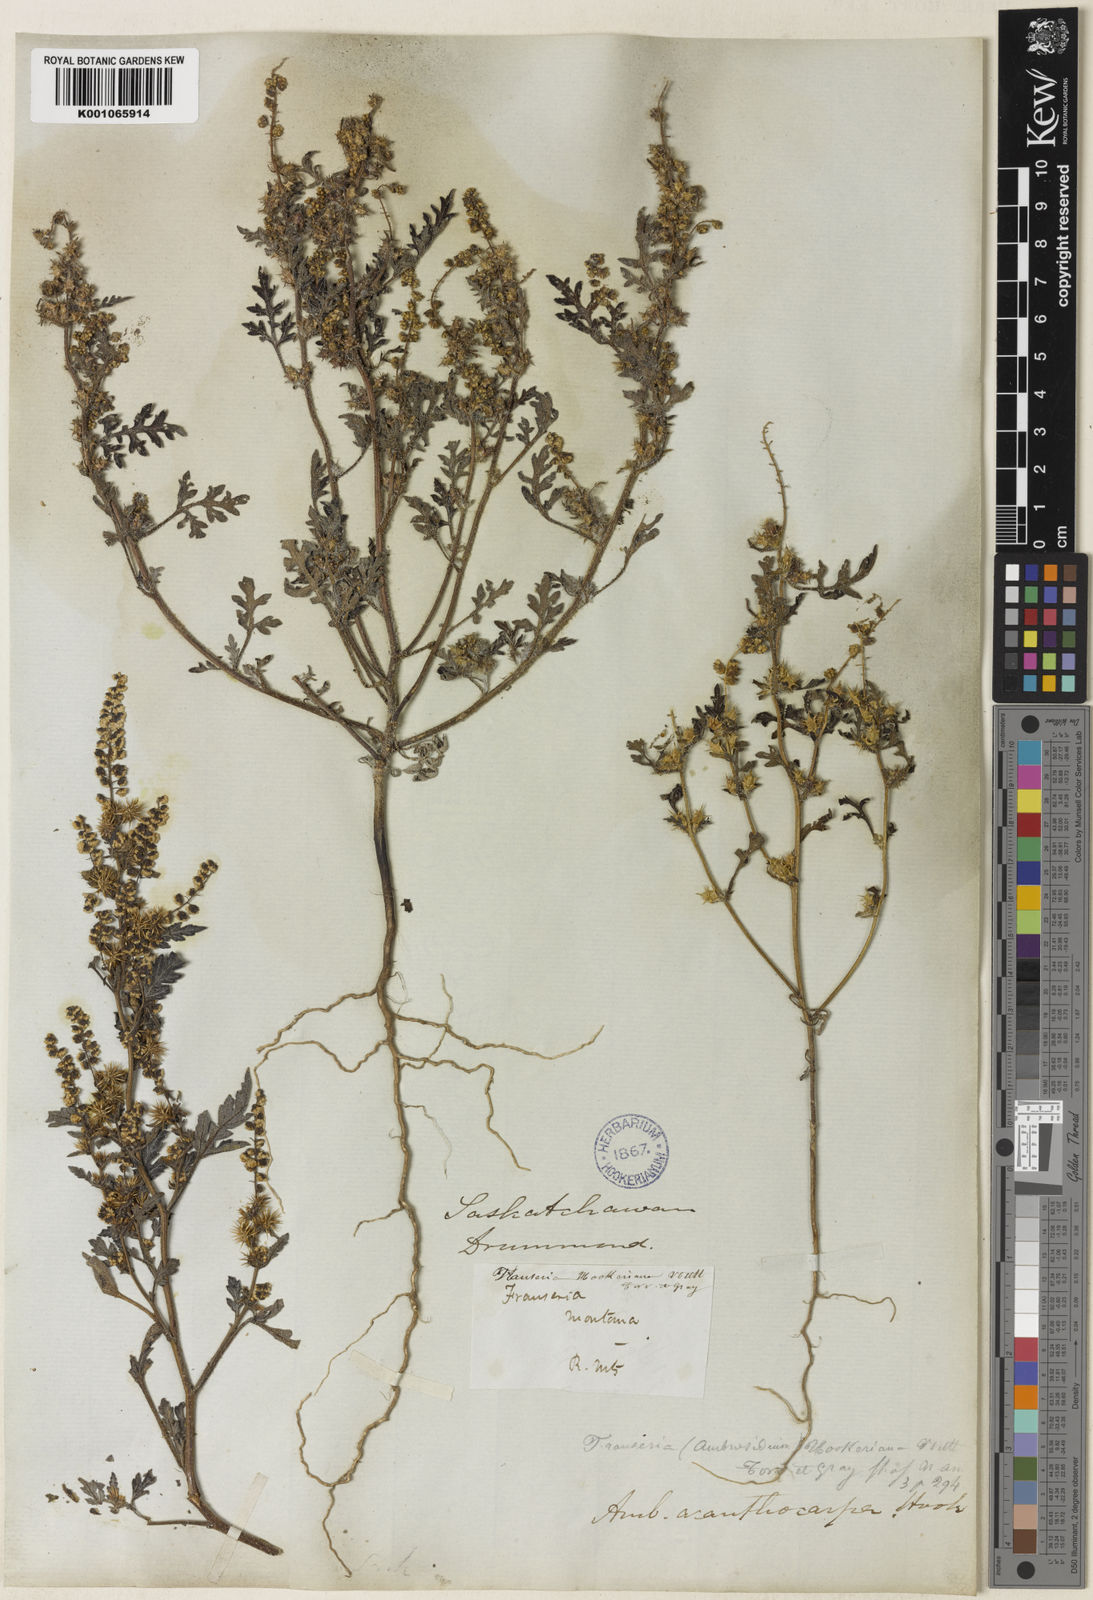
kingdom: Plantae
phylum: Tracheophyta
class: Magnoliopsida
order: Asterales
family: Asteraceae
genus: Ambrosia
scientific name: Ambrosia acanthicarpa
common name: Hooker's bur ragweed
